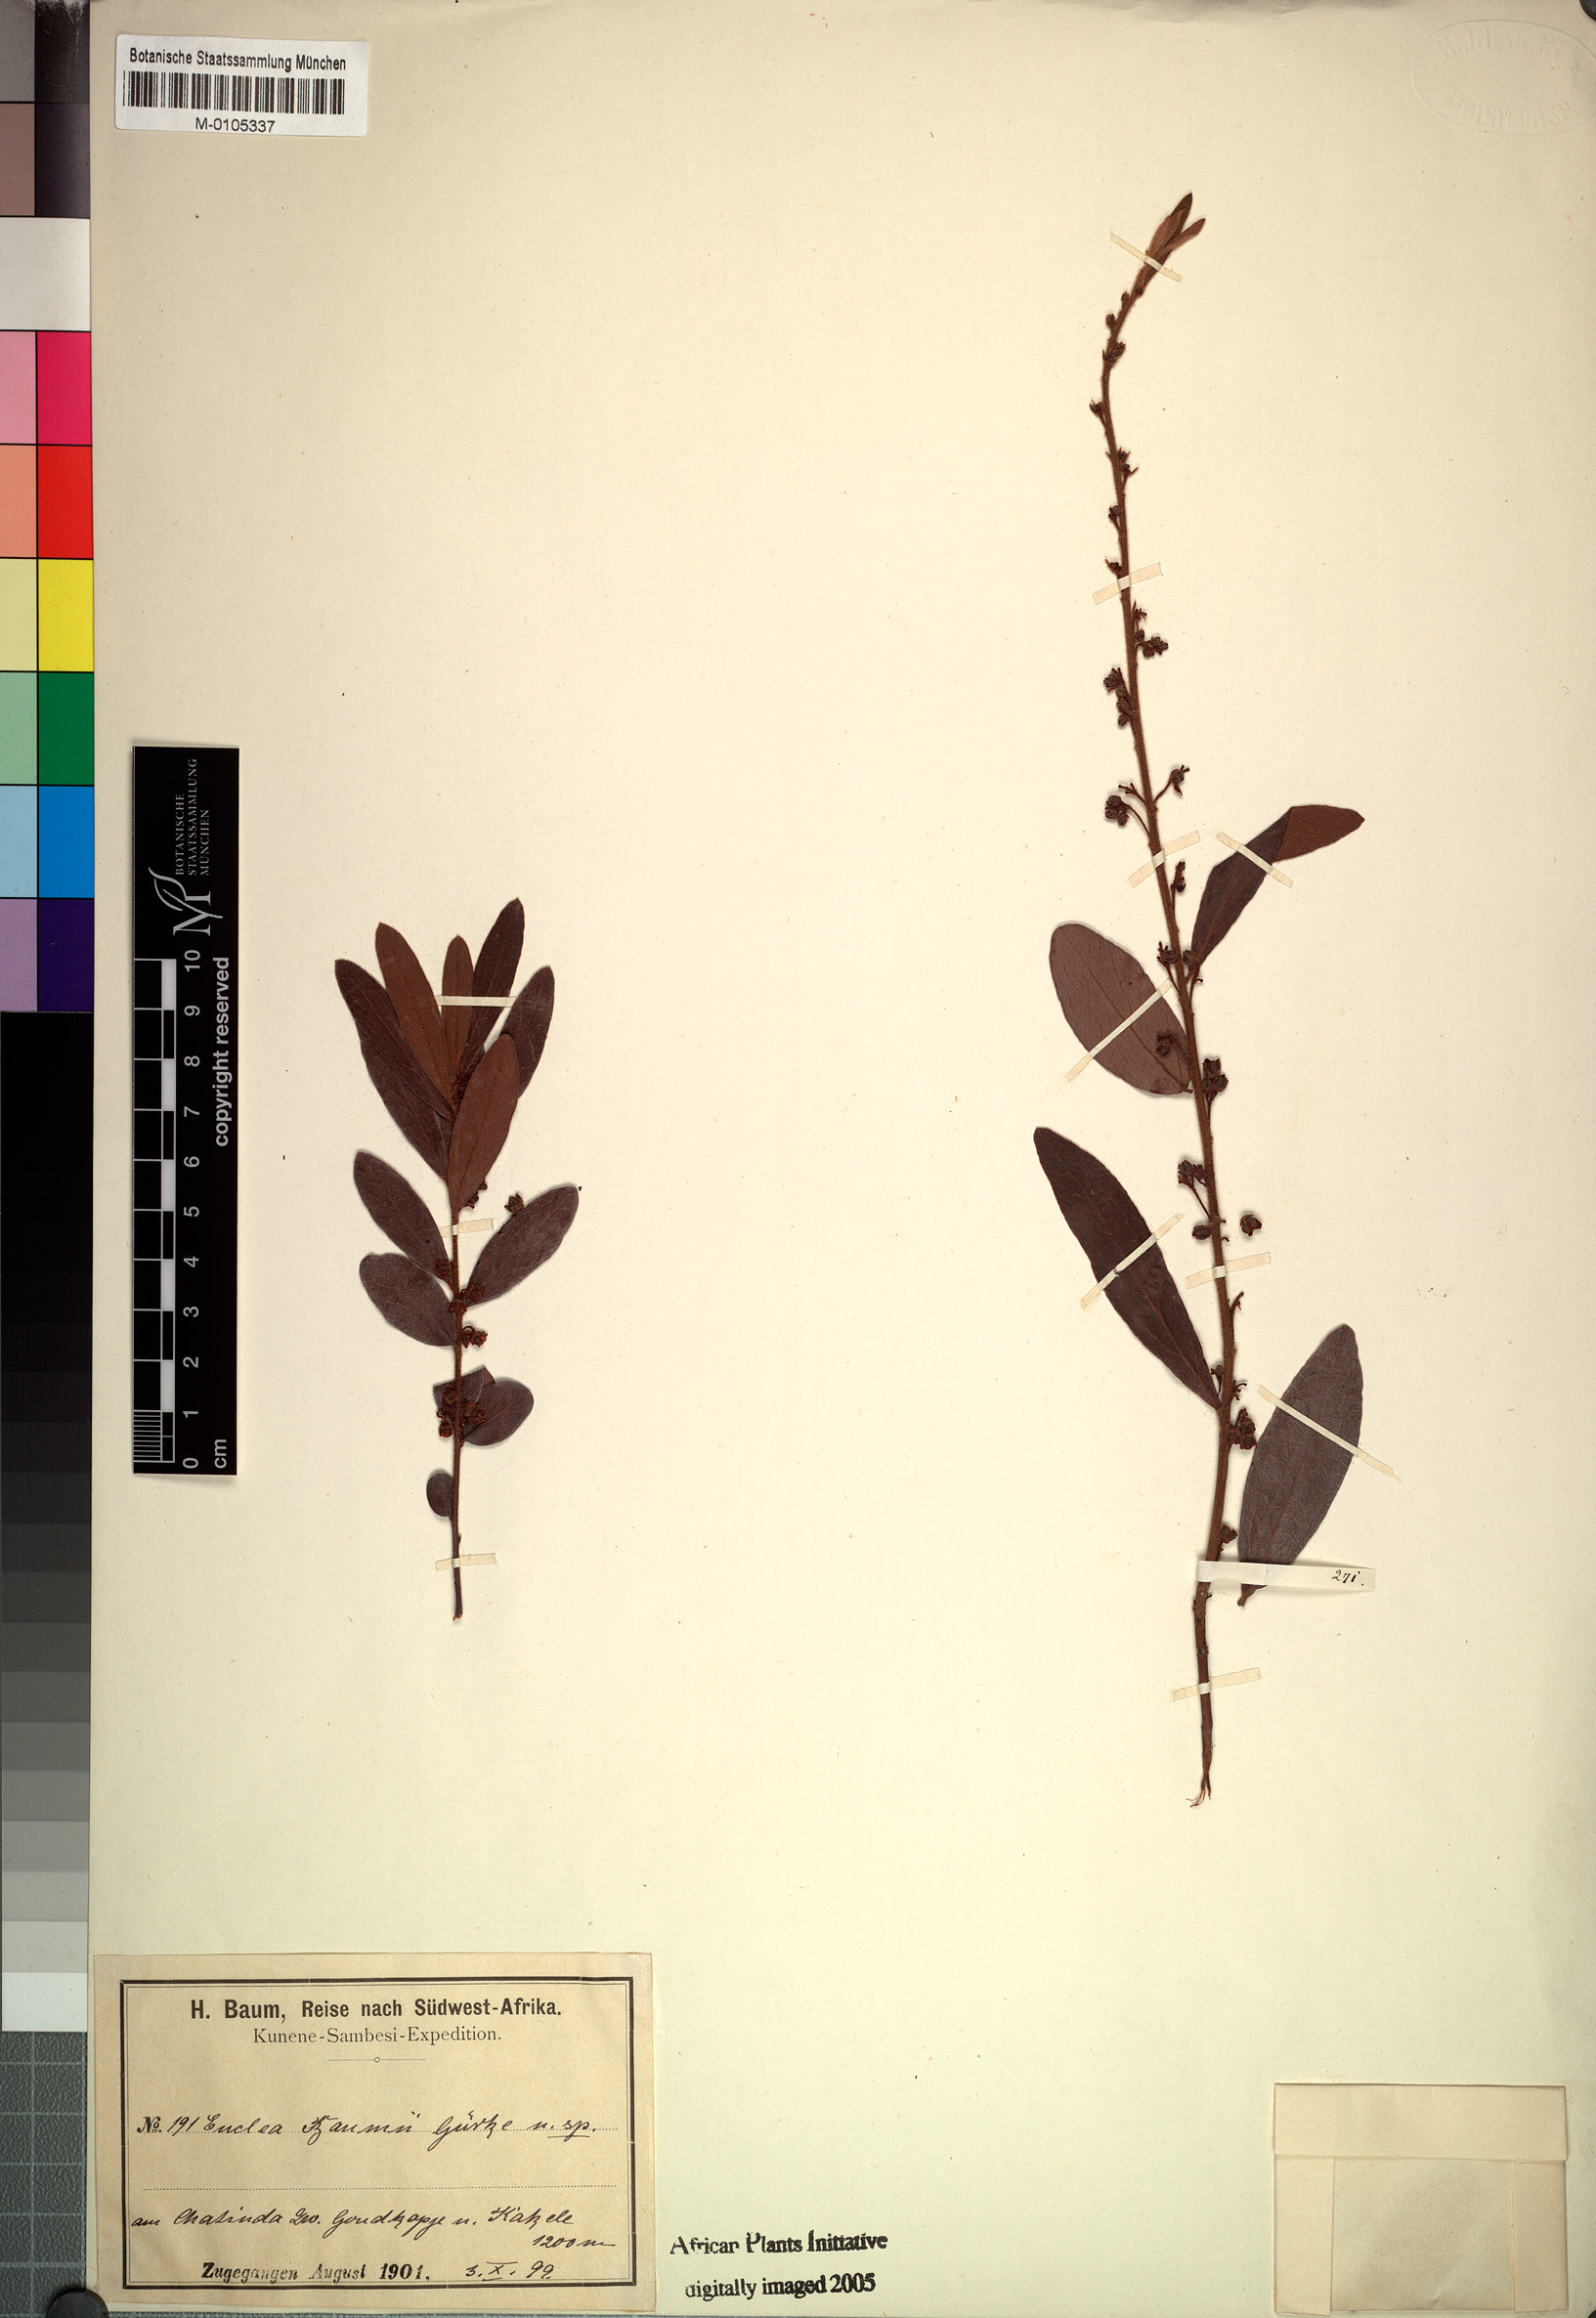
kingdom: Plantae
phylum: Tracheophyta
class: Magnoliopsida
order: Ericales
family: Ebenaceae
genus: Euclea
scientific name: Euclea crispa
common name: Blue guarri
